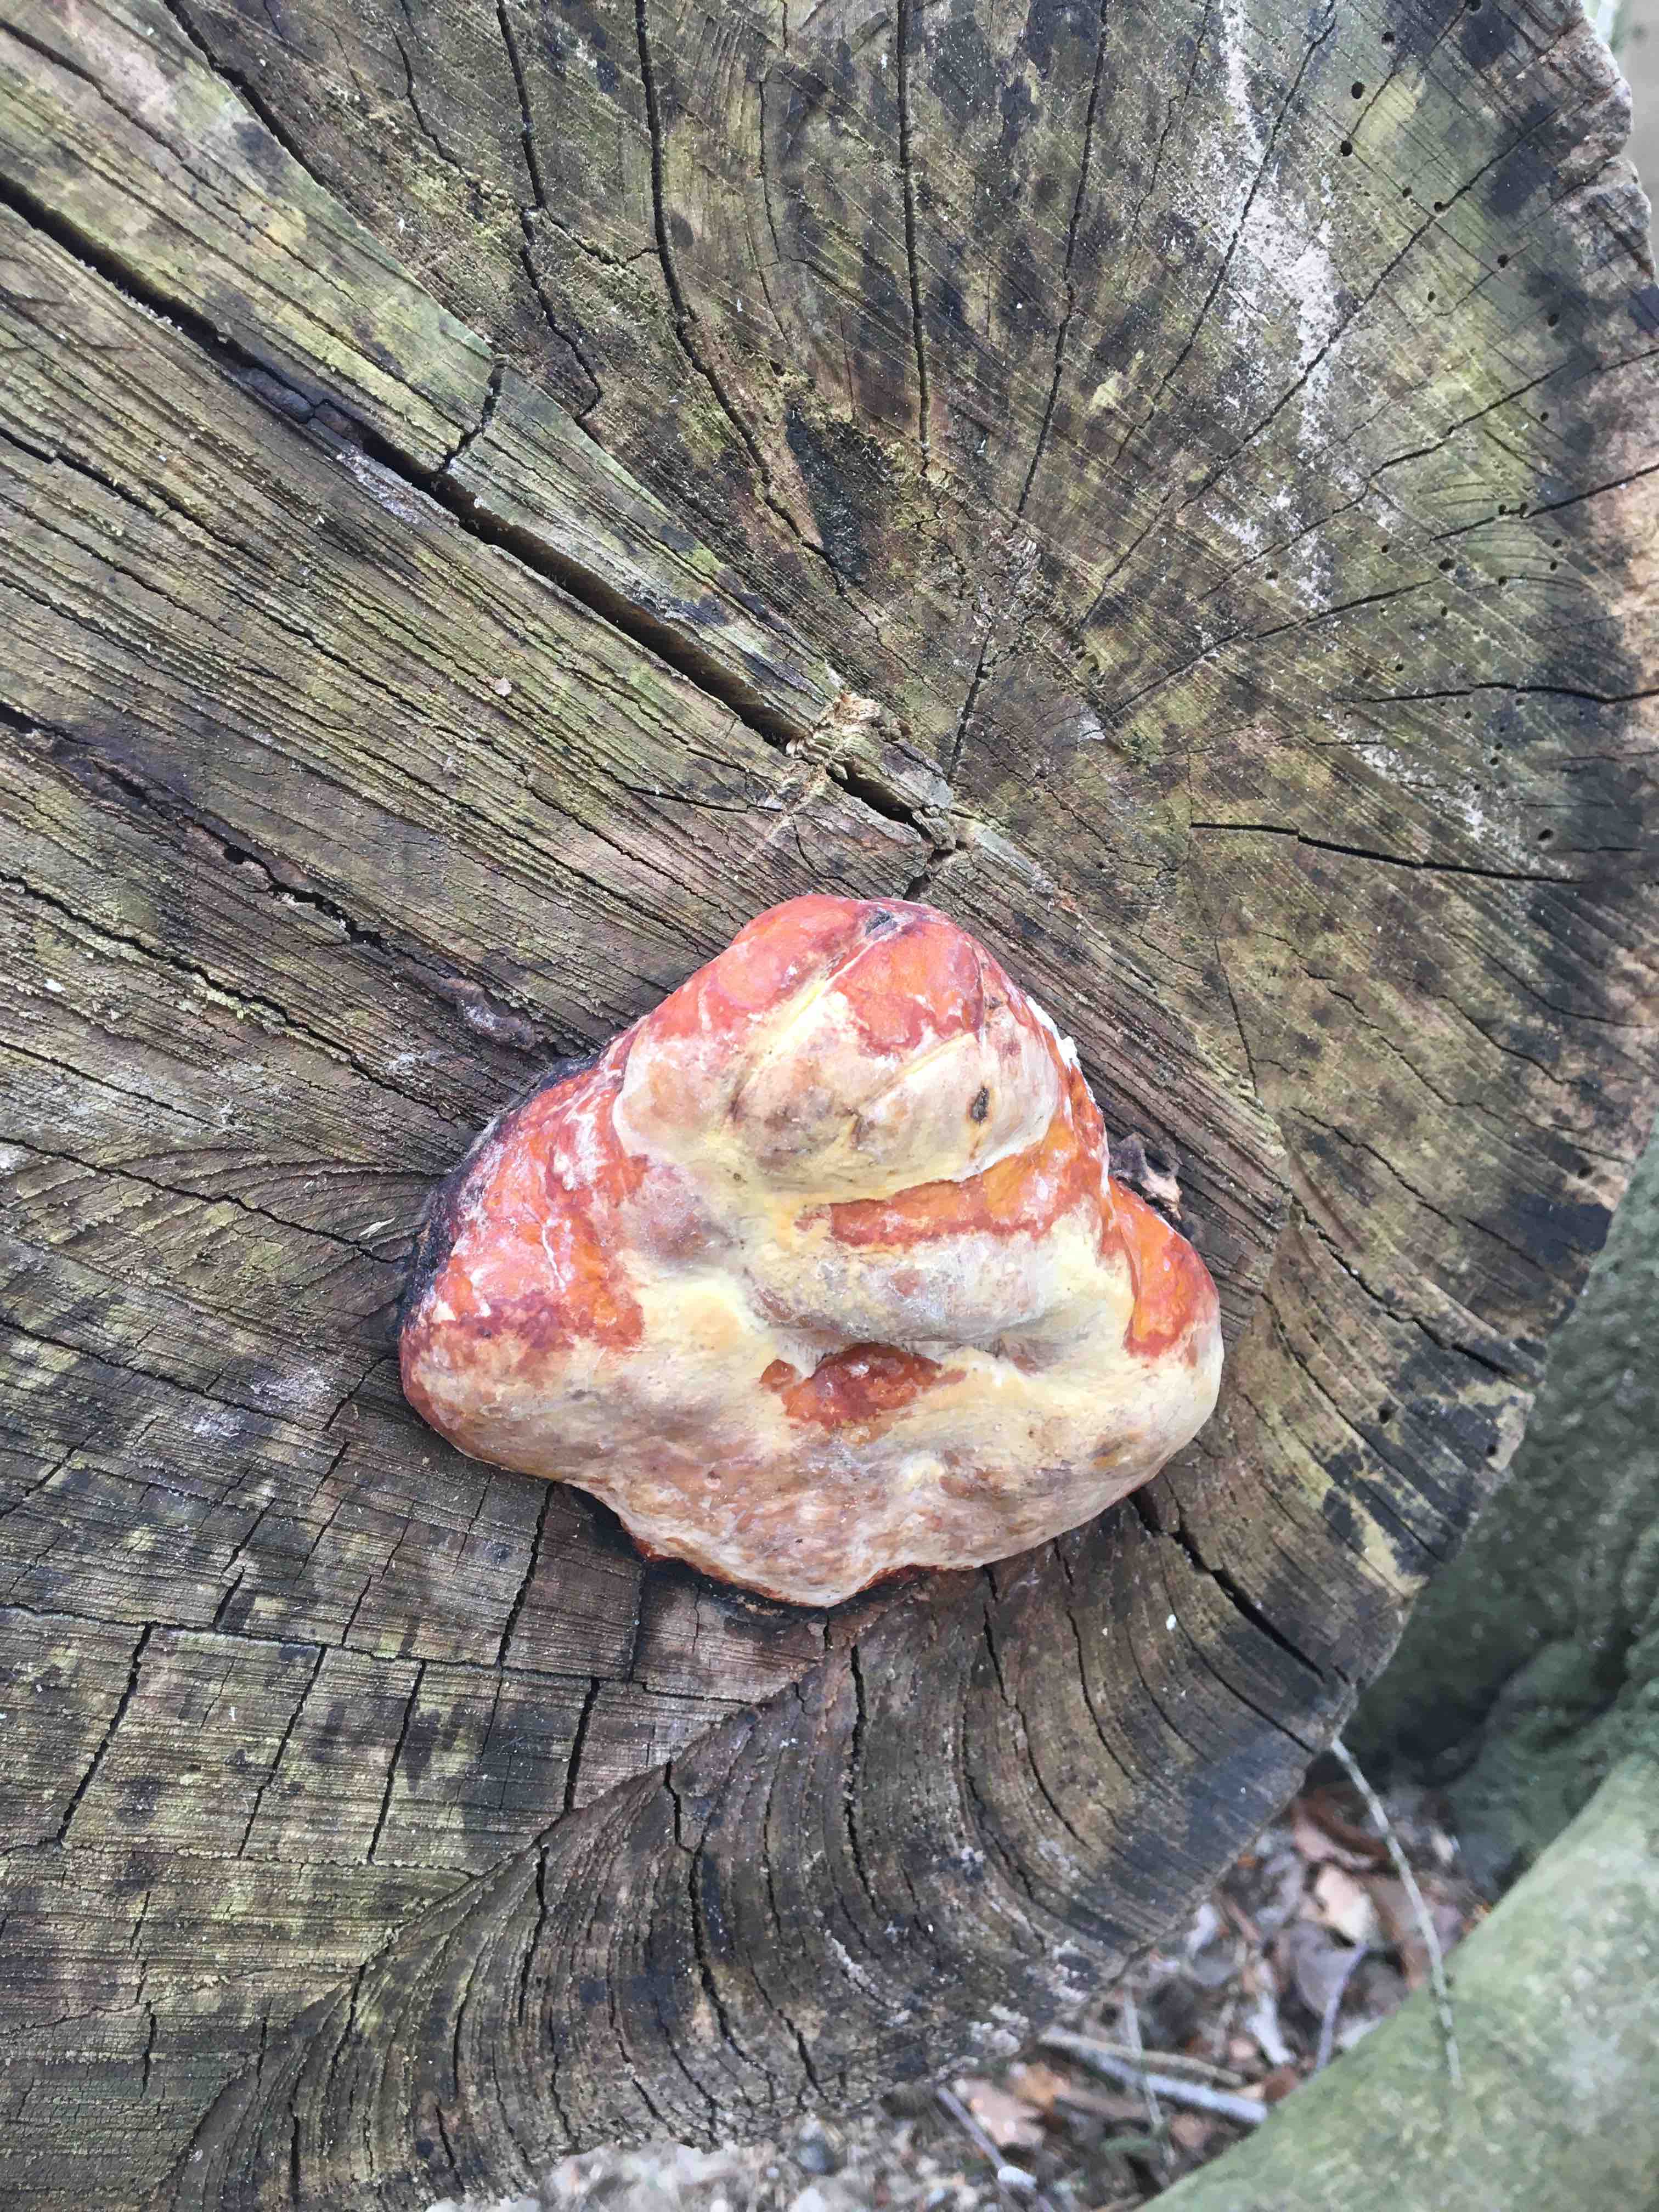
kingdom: Fungi
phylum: Basidiomycota
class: Agaricomycetes
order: Polyporales
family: Fomitopsidaceae
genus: Fomitopsis
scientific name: Fomitopsis pinicola
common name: randbæltet hovporesvamp
